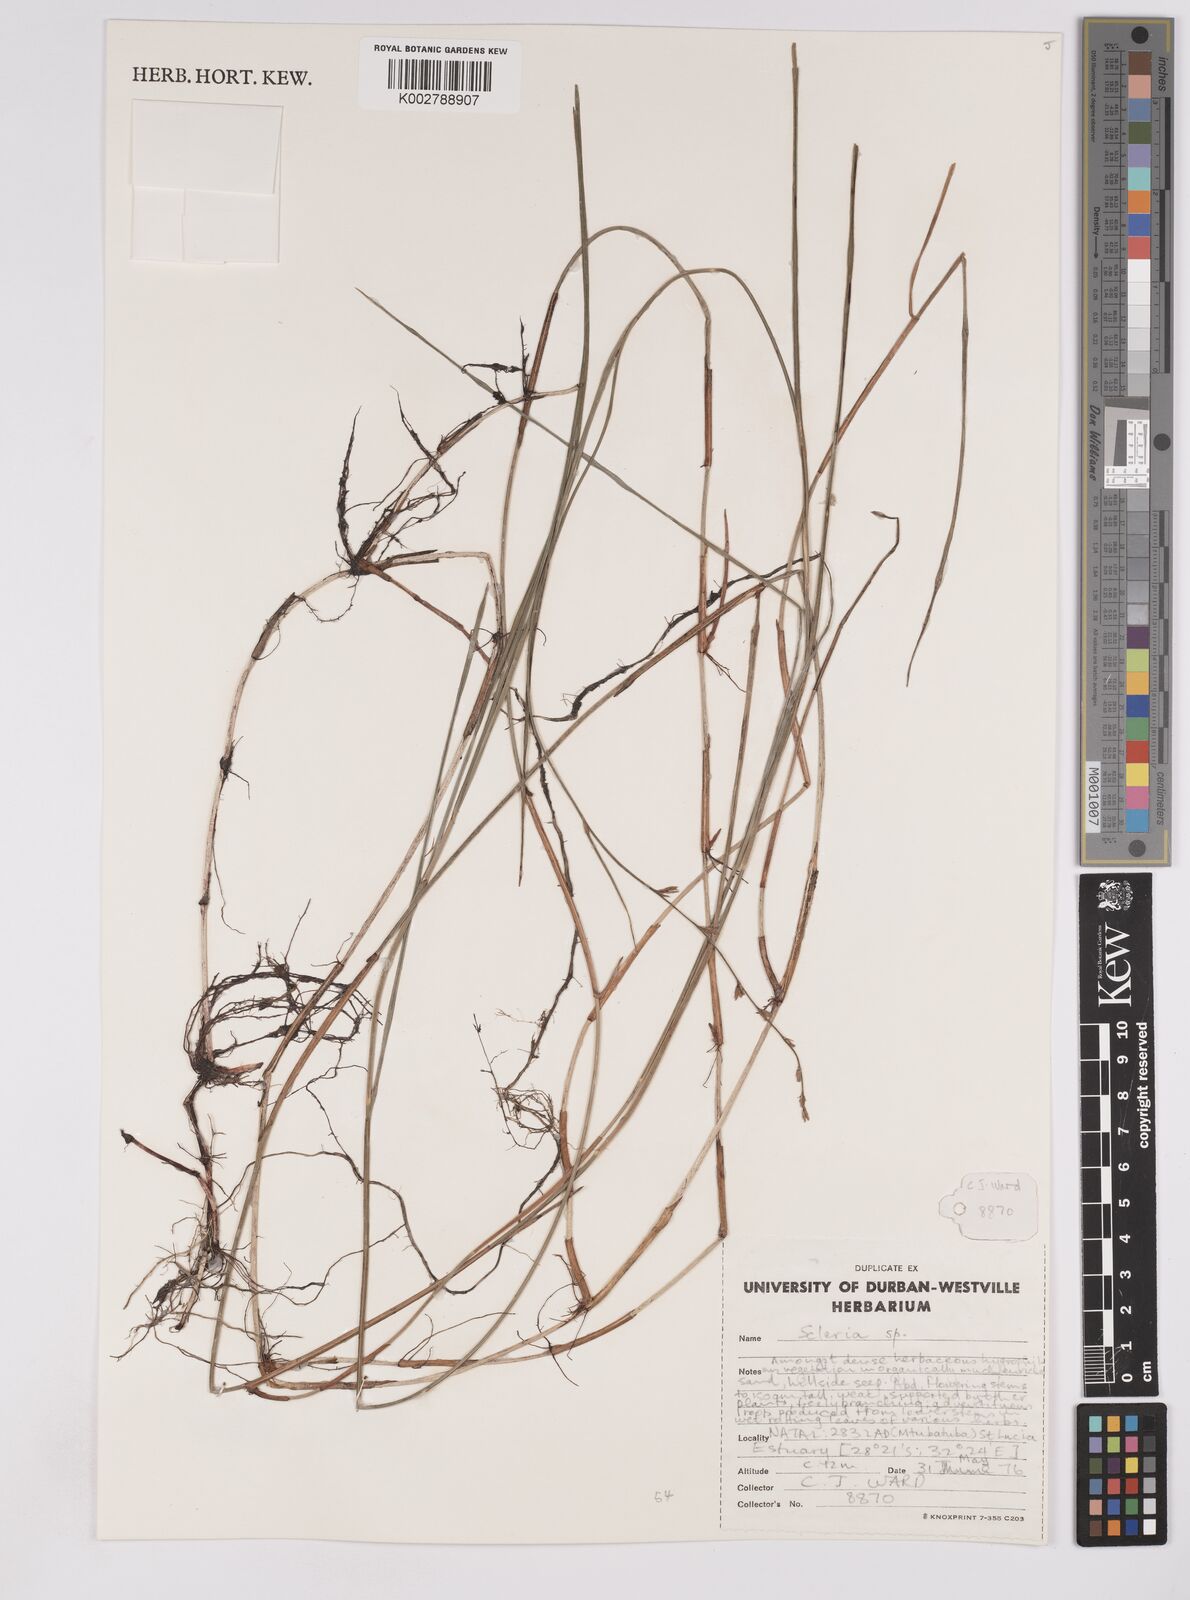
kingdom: Plantae
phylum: Tracheophyta
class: Liliopsida
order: Poales
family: Cyperaceae
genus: Scleria
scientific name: Scleria sobolifera
